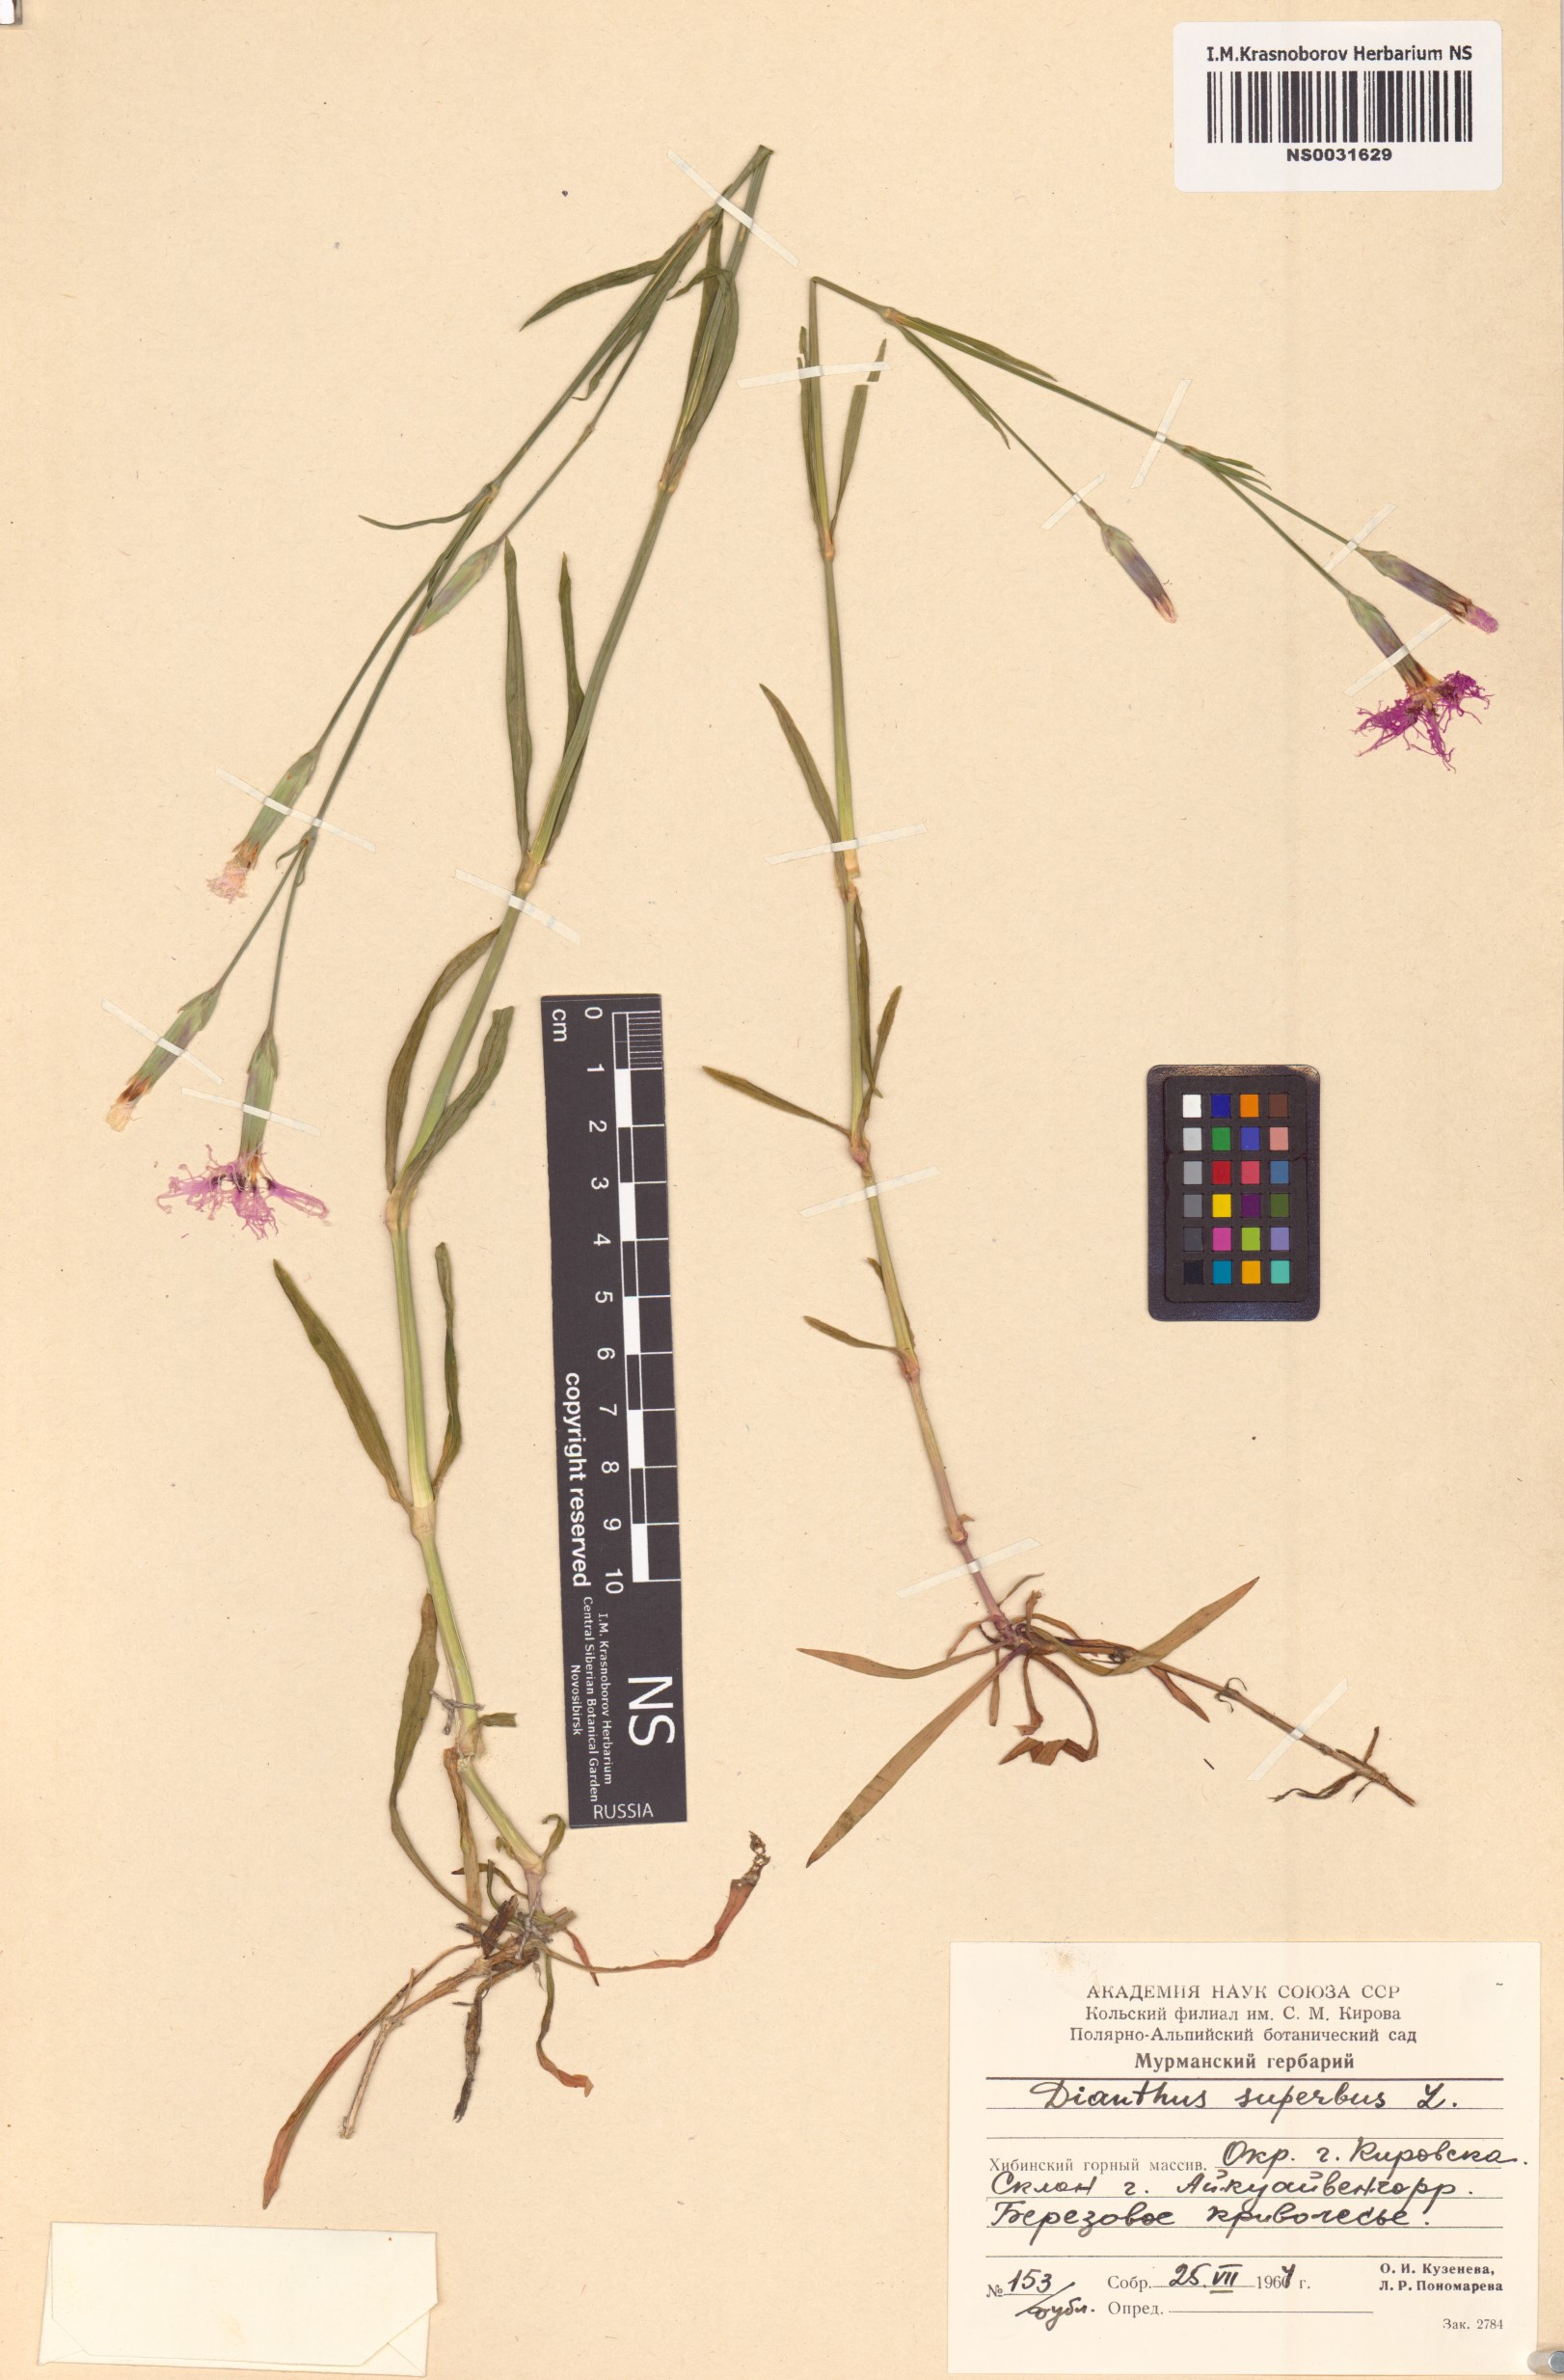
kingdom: Plantae
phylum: Tracheophyta
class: Magnoliopsida
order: Caryophyllales
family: Caryophyllaceae
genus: Dianthus
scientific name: Dianthus superbus
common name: Fringed pink
